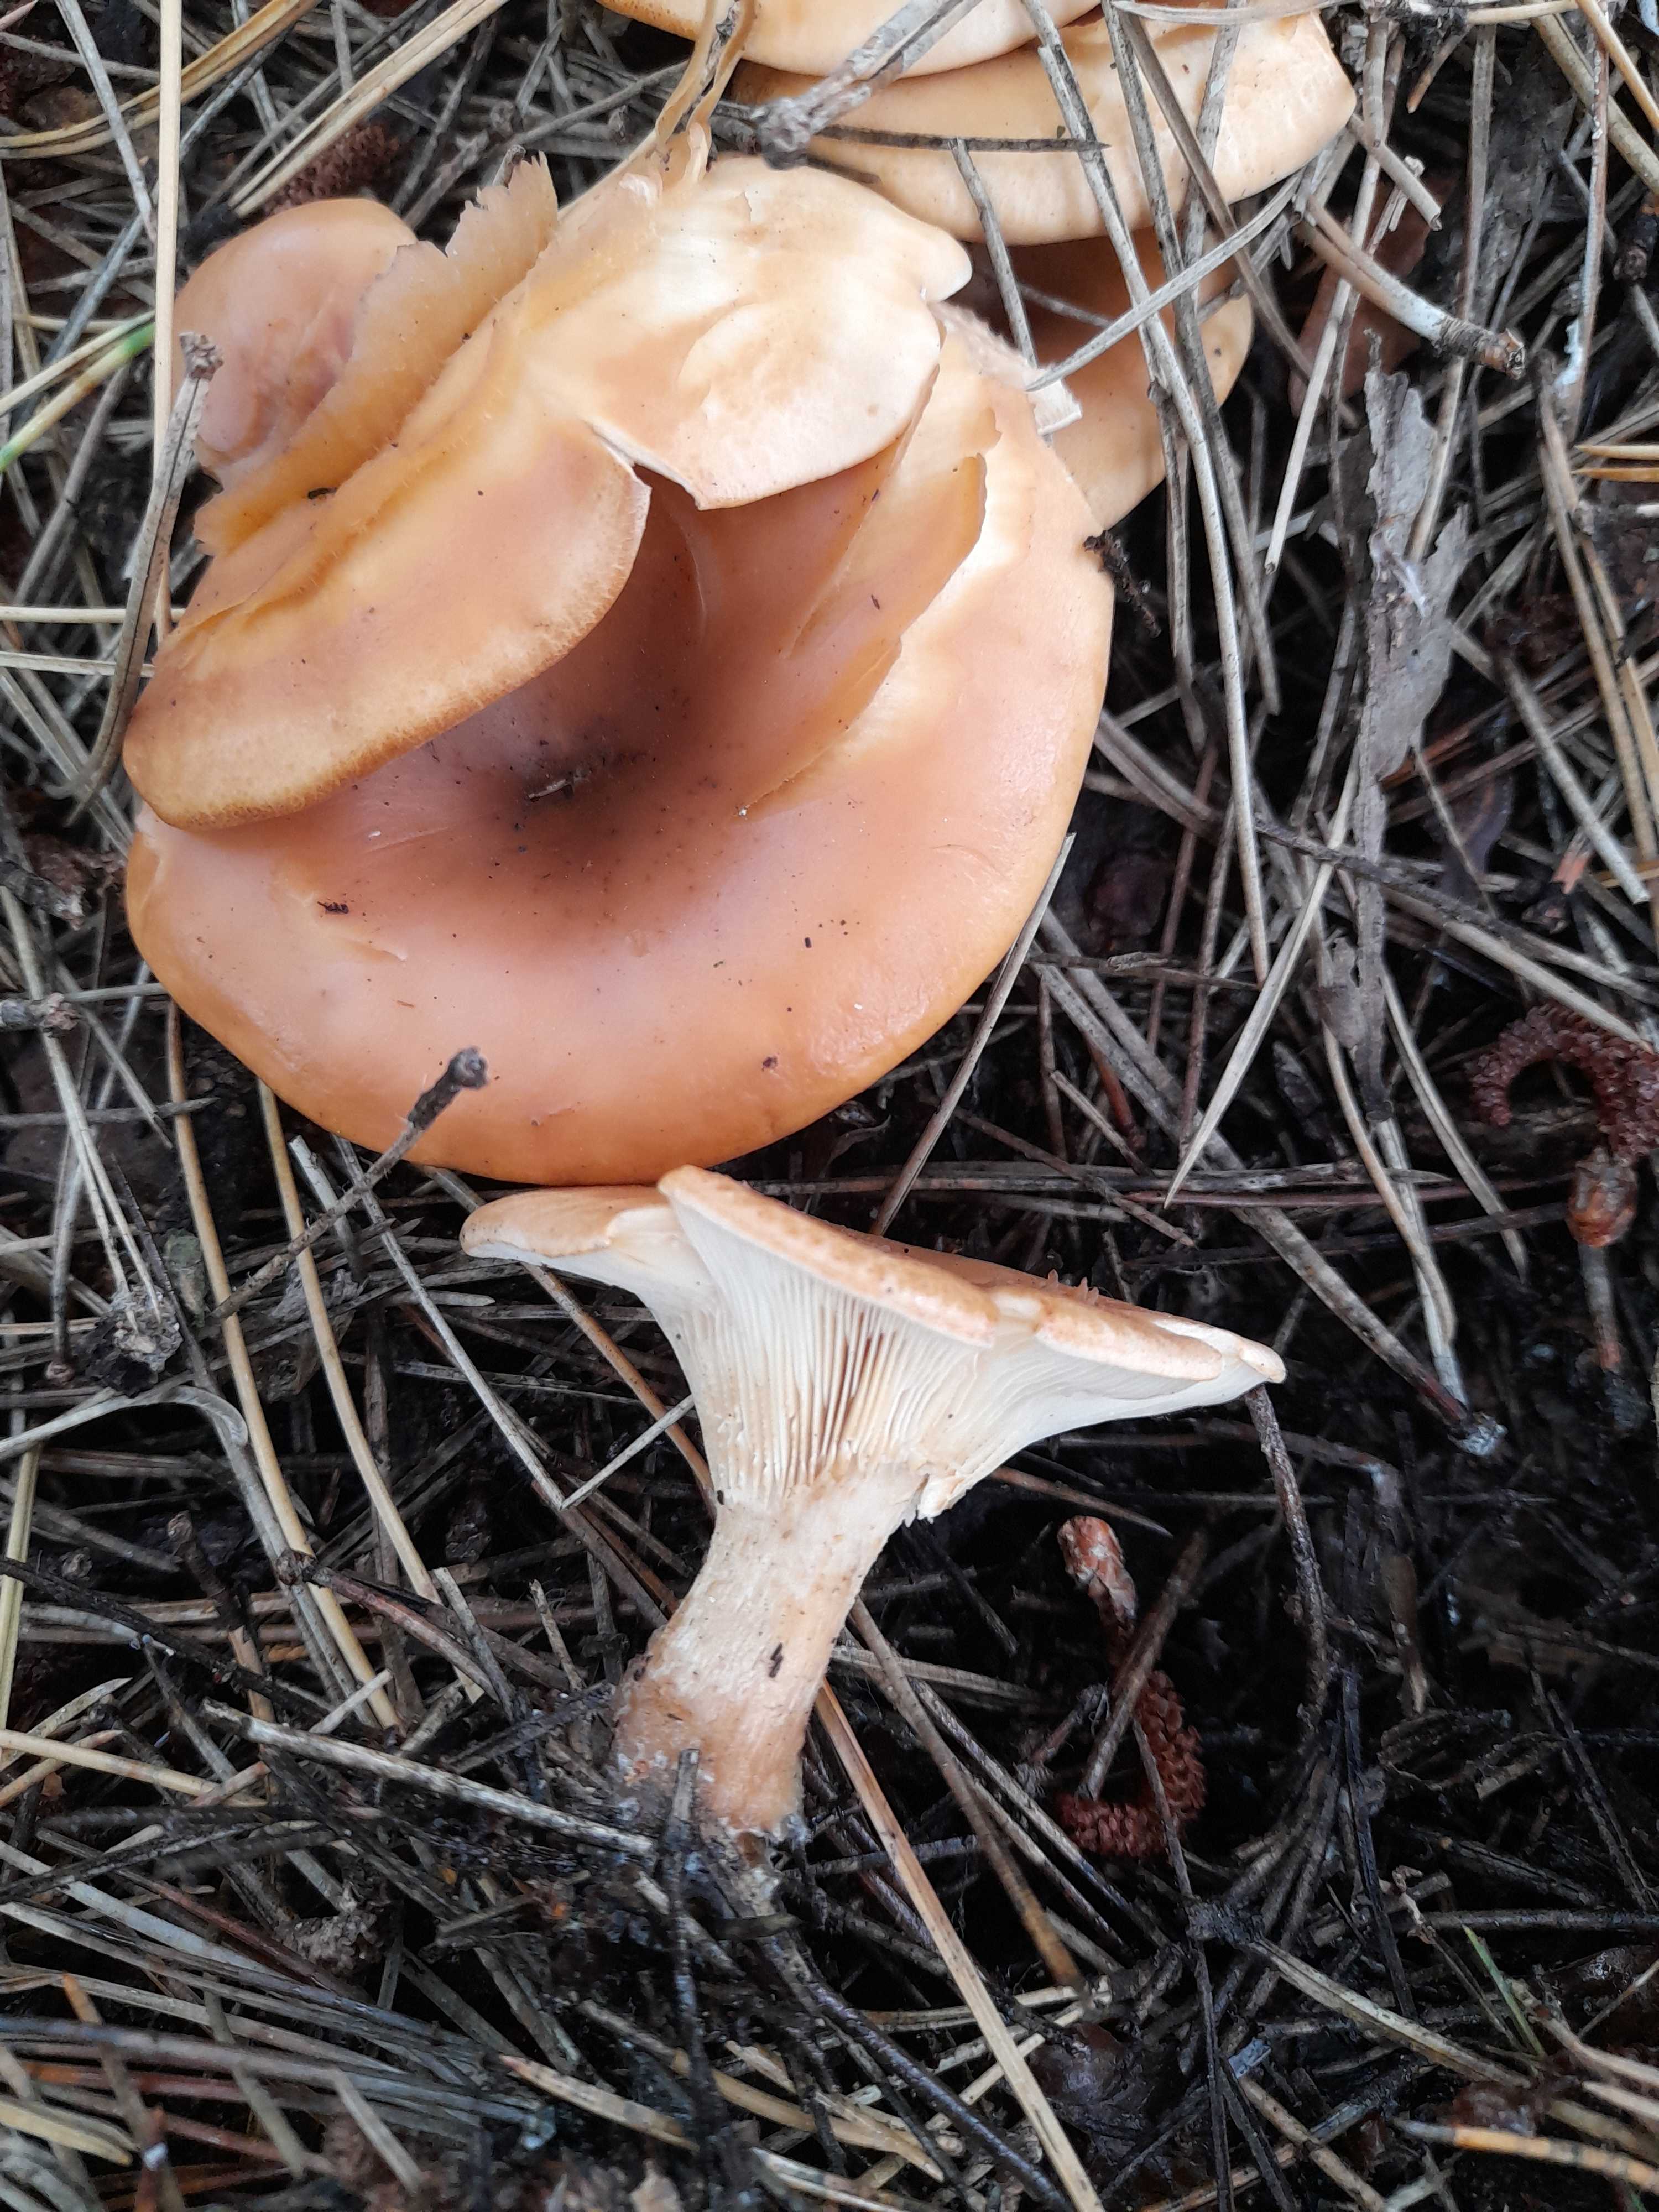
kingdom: Fungi
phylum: Basidiomycota
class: Agaricomycetes
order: Agaricales
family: Tricholomataceae
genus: Paralepista
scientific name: Paralepista flaccida
